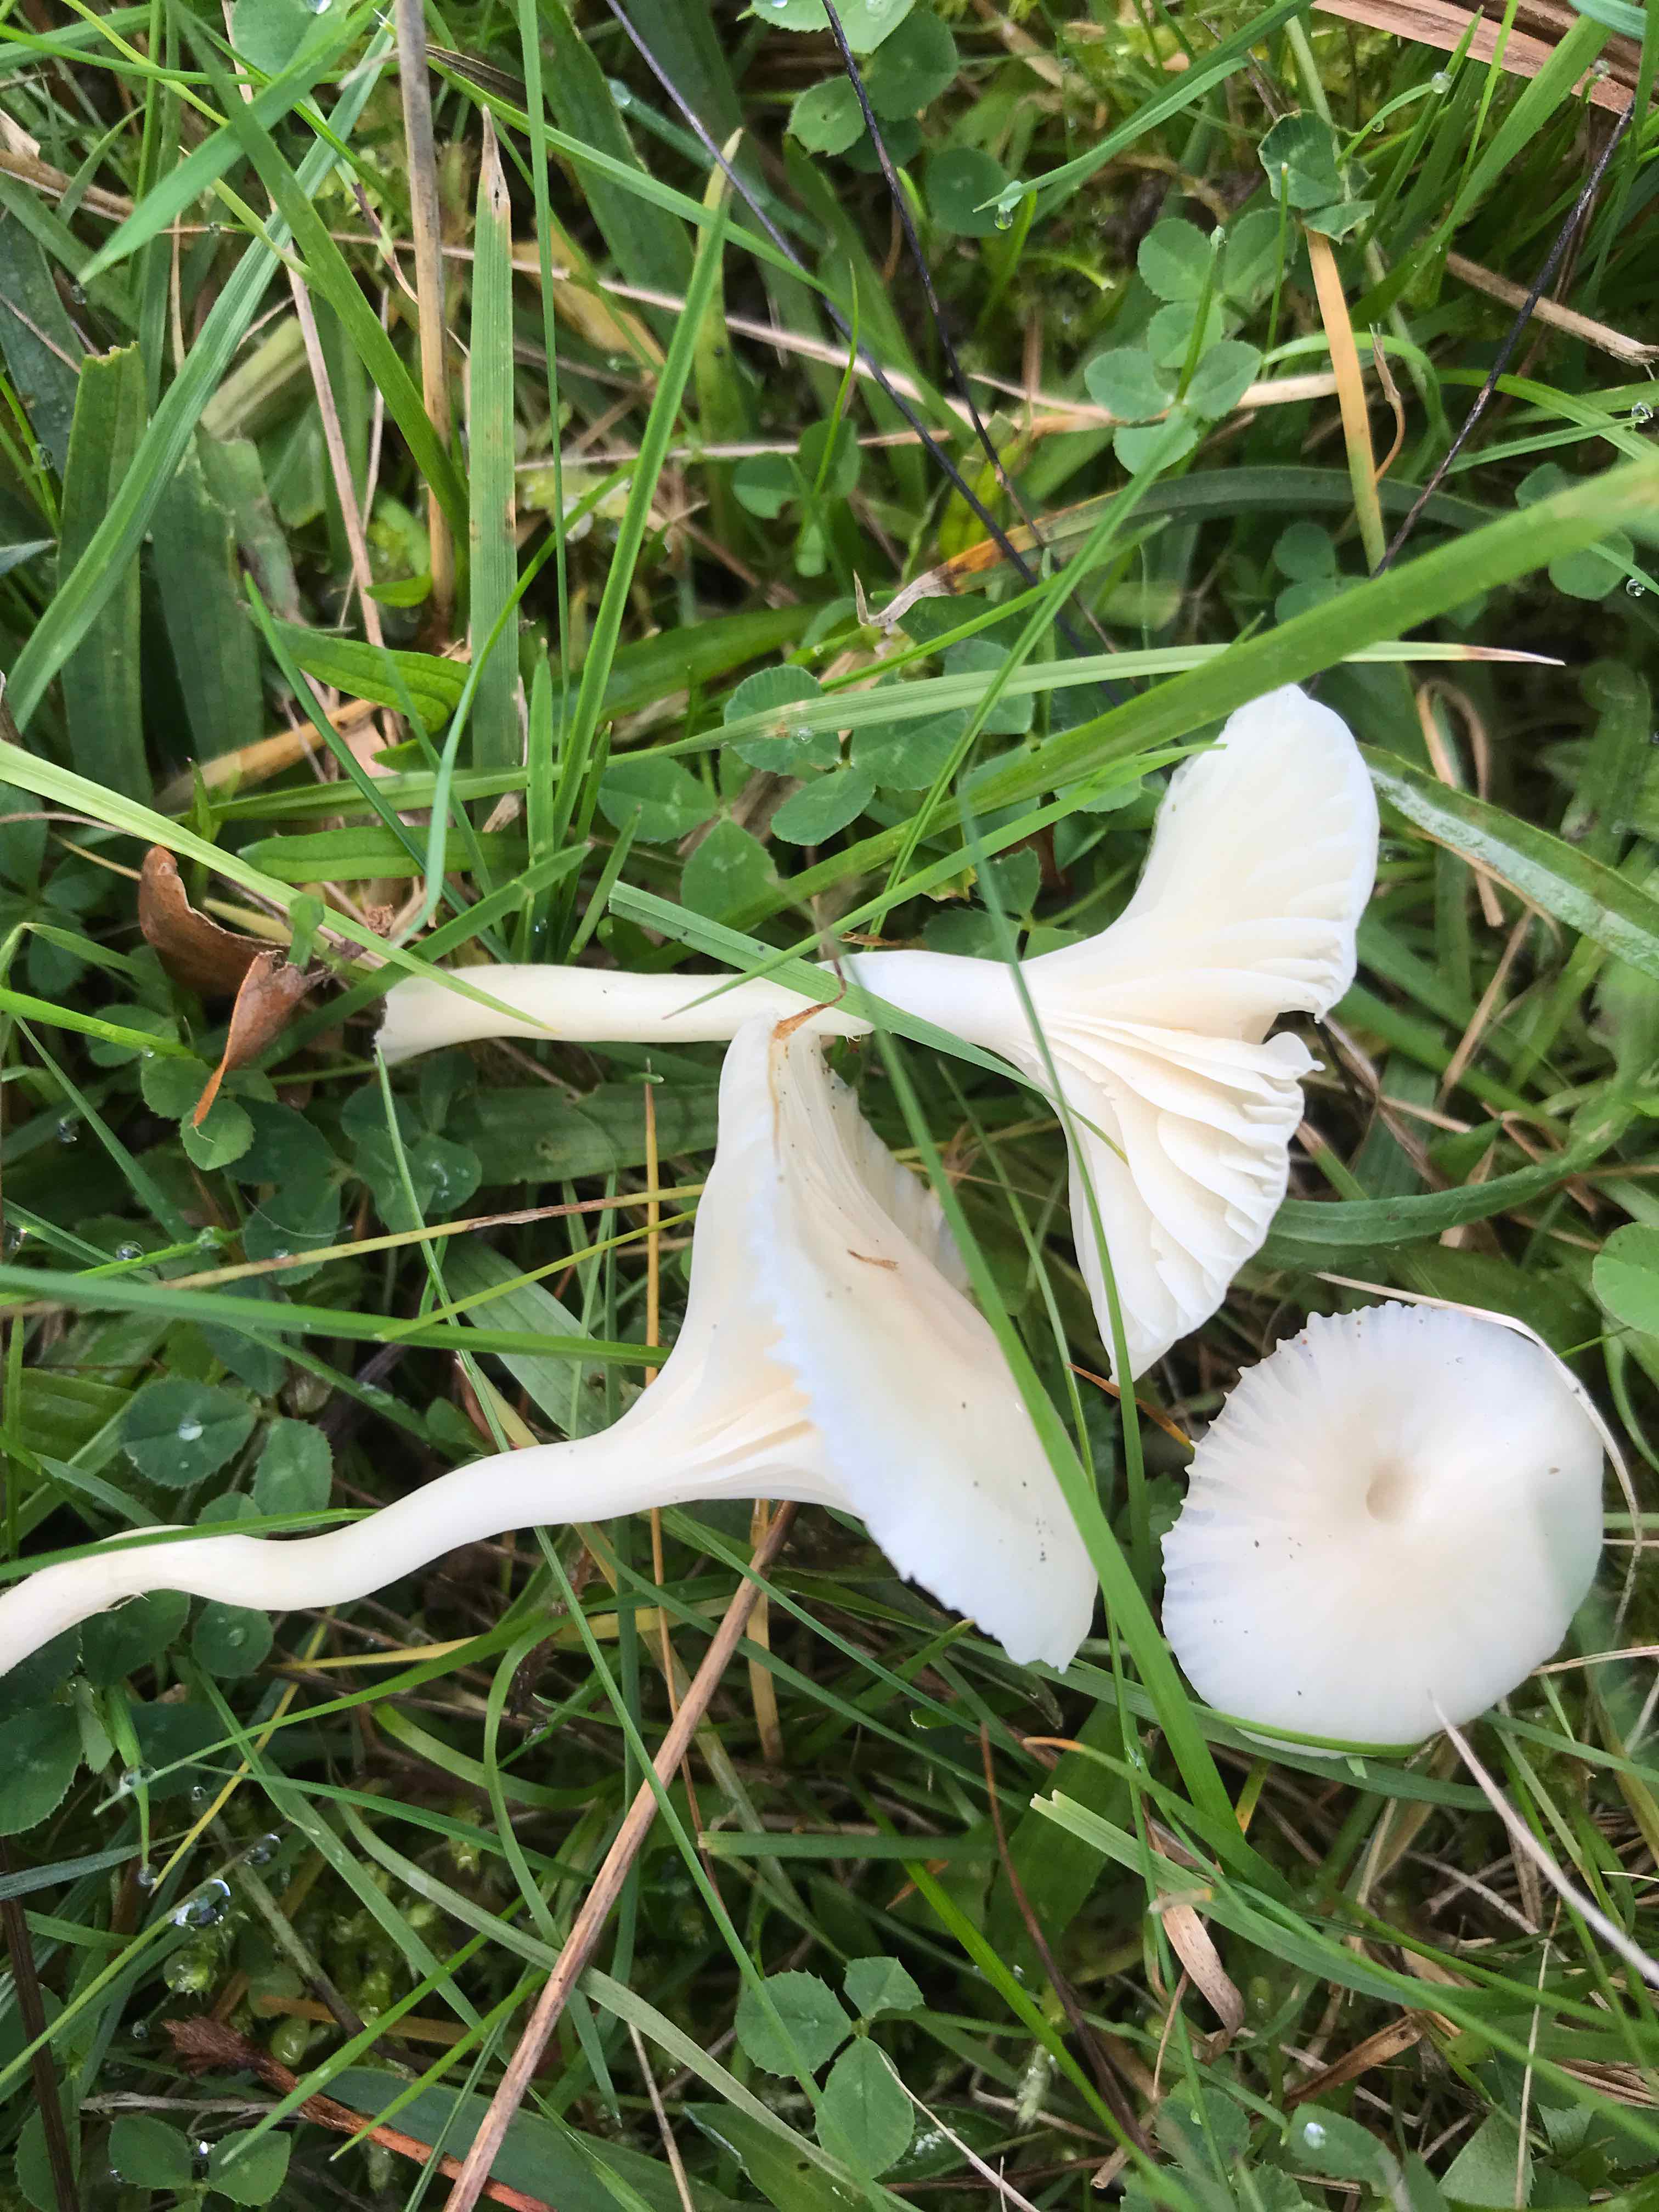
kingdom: Fungi
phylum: Basidiomycota
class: Agaricomycetes
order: Agaricales
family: Hygrophoraceae
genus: Cuphophyllus
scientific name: Cuphophyllus virgineus
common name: snehvid vokshat
